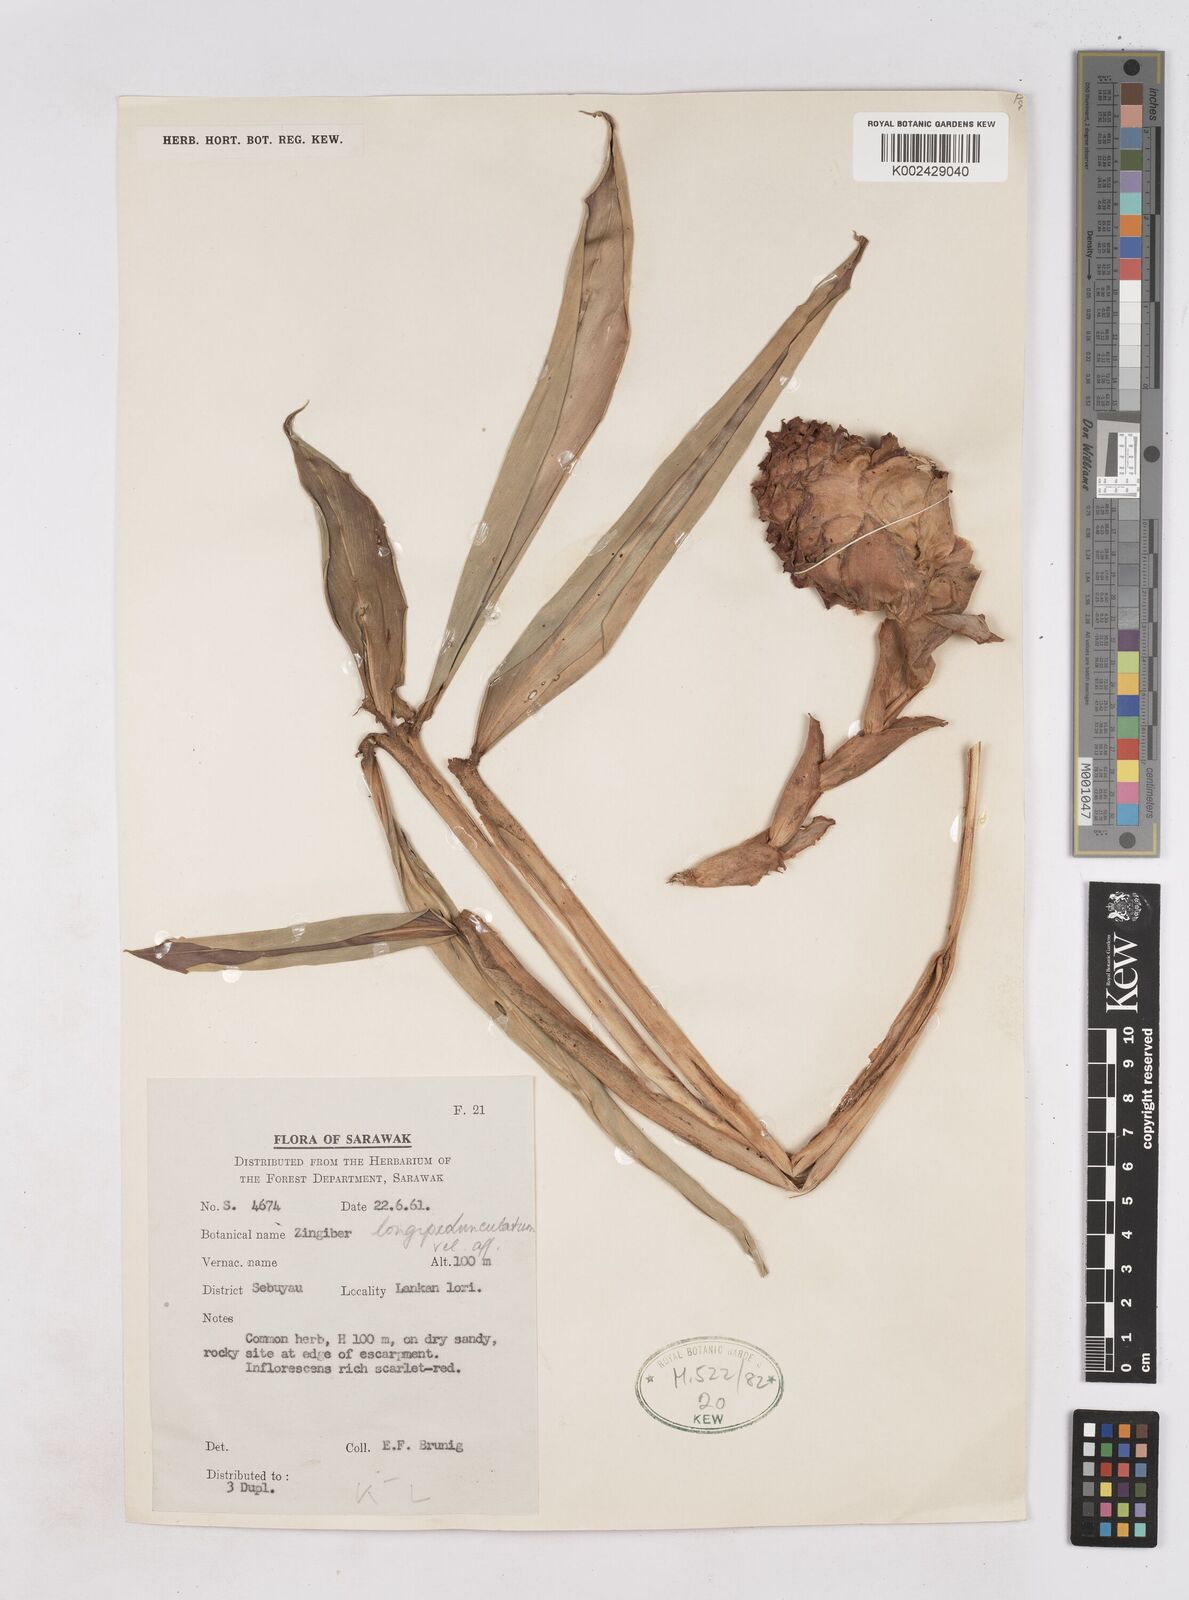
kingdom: Plantae
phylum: Tracheophyta
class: Liliopsida
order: Zingiberales
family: Zingiberaceae
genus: Zingiber
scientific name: Zingiber longipedunculatum
